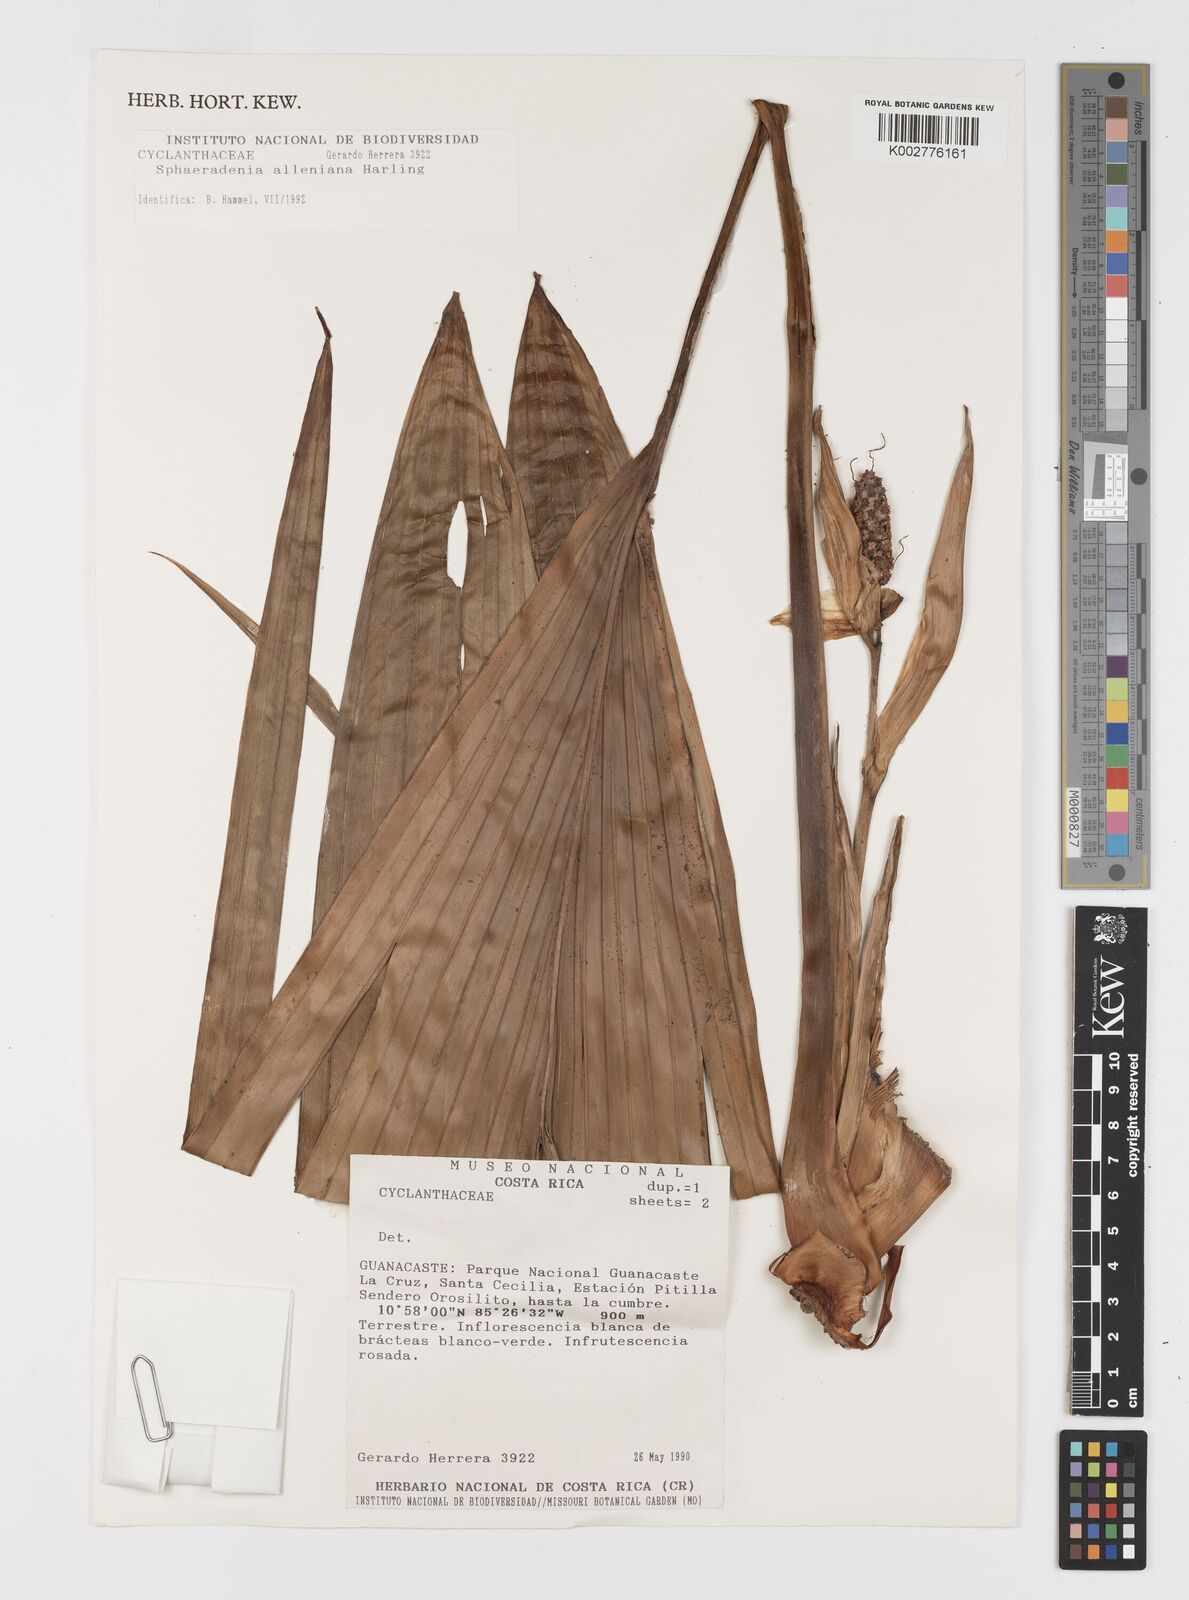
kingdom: Plantae
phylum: Tracheophyta
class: Liliopsida
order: Pandanales
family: Cyclanthaceae
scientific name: Cyclanthaceae
